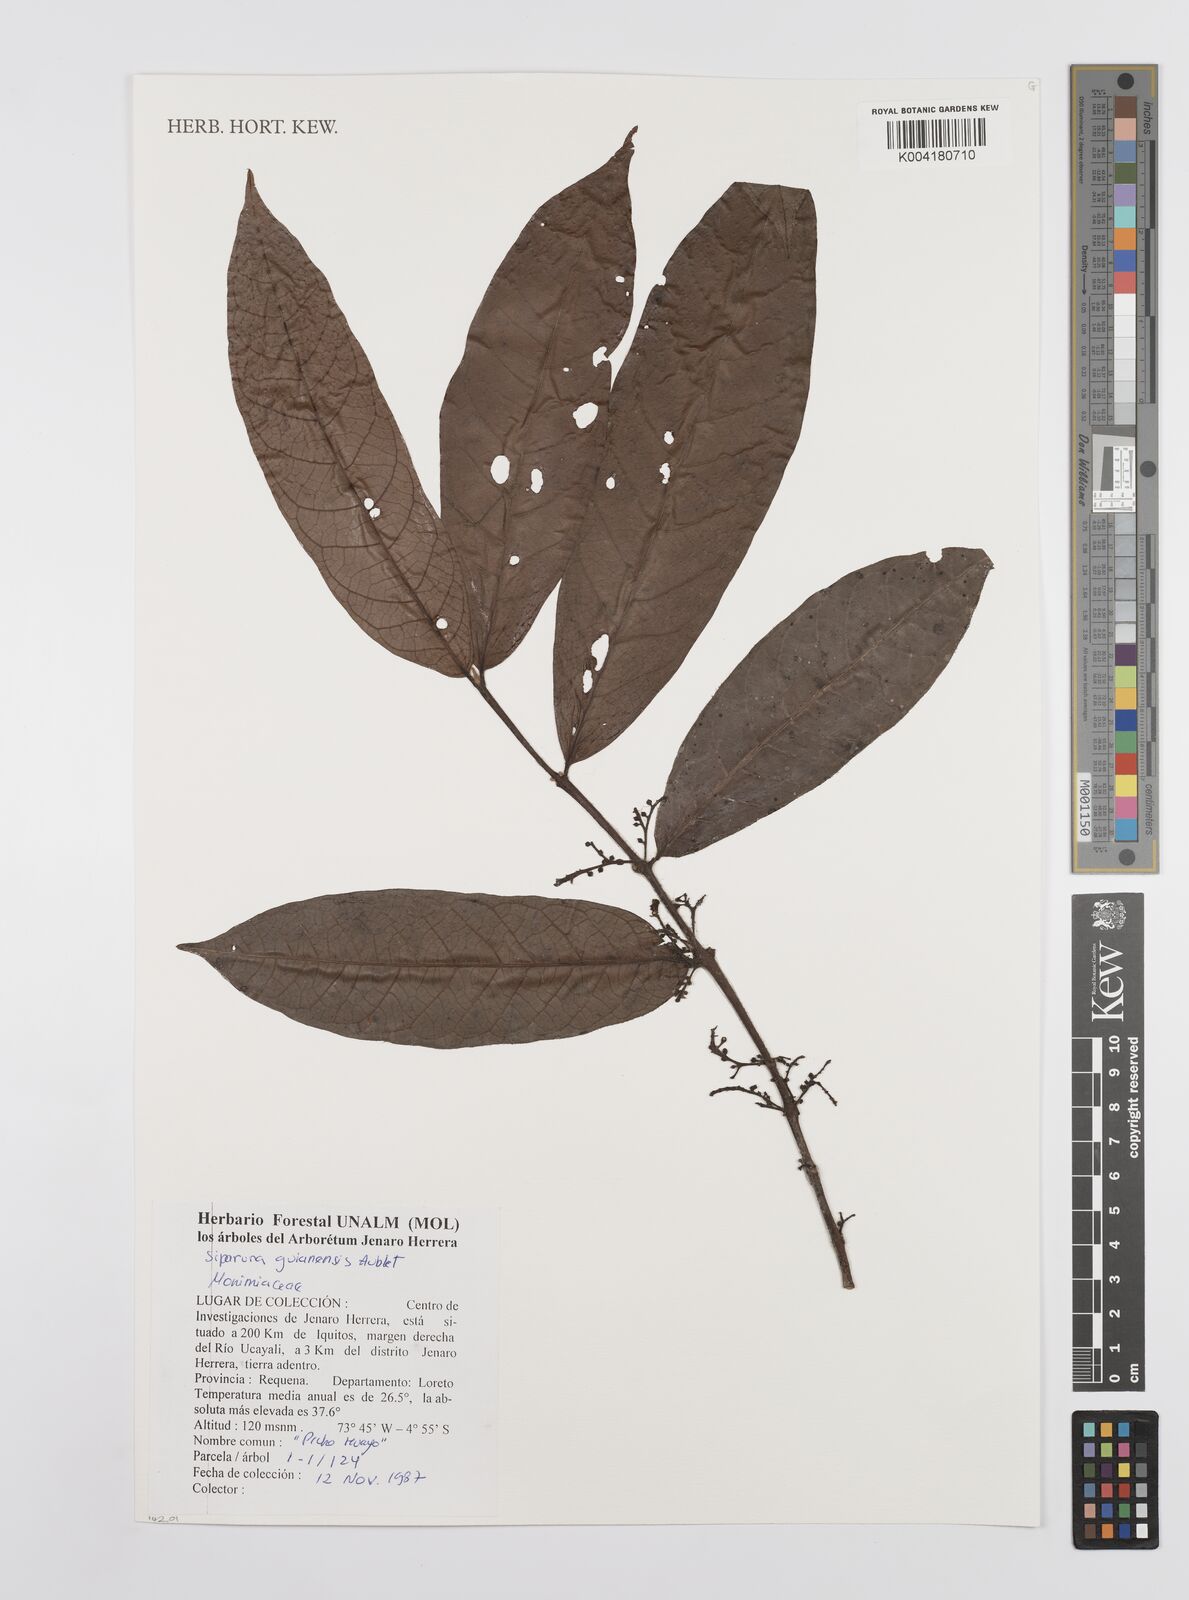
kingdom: Plantae
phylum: Tracheophyta
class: Magnoliopsida
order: Laurales
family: Siparunaceae
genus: Siparuna
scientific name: Siparuna guianensis
